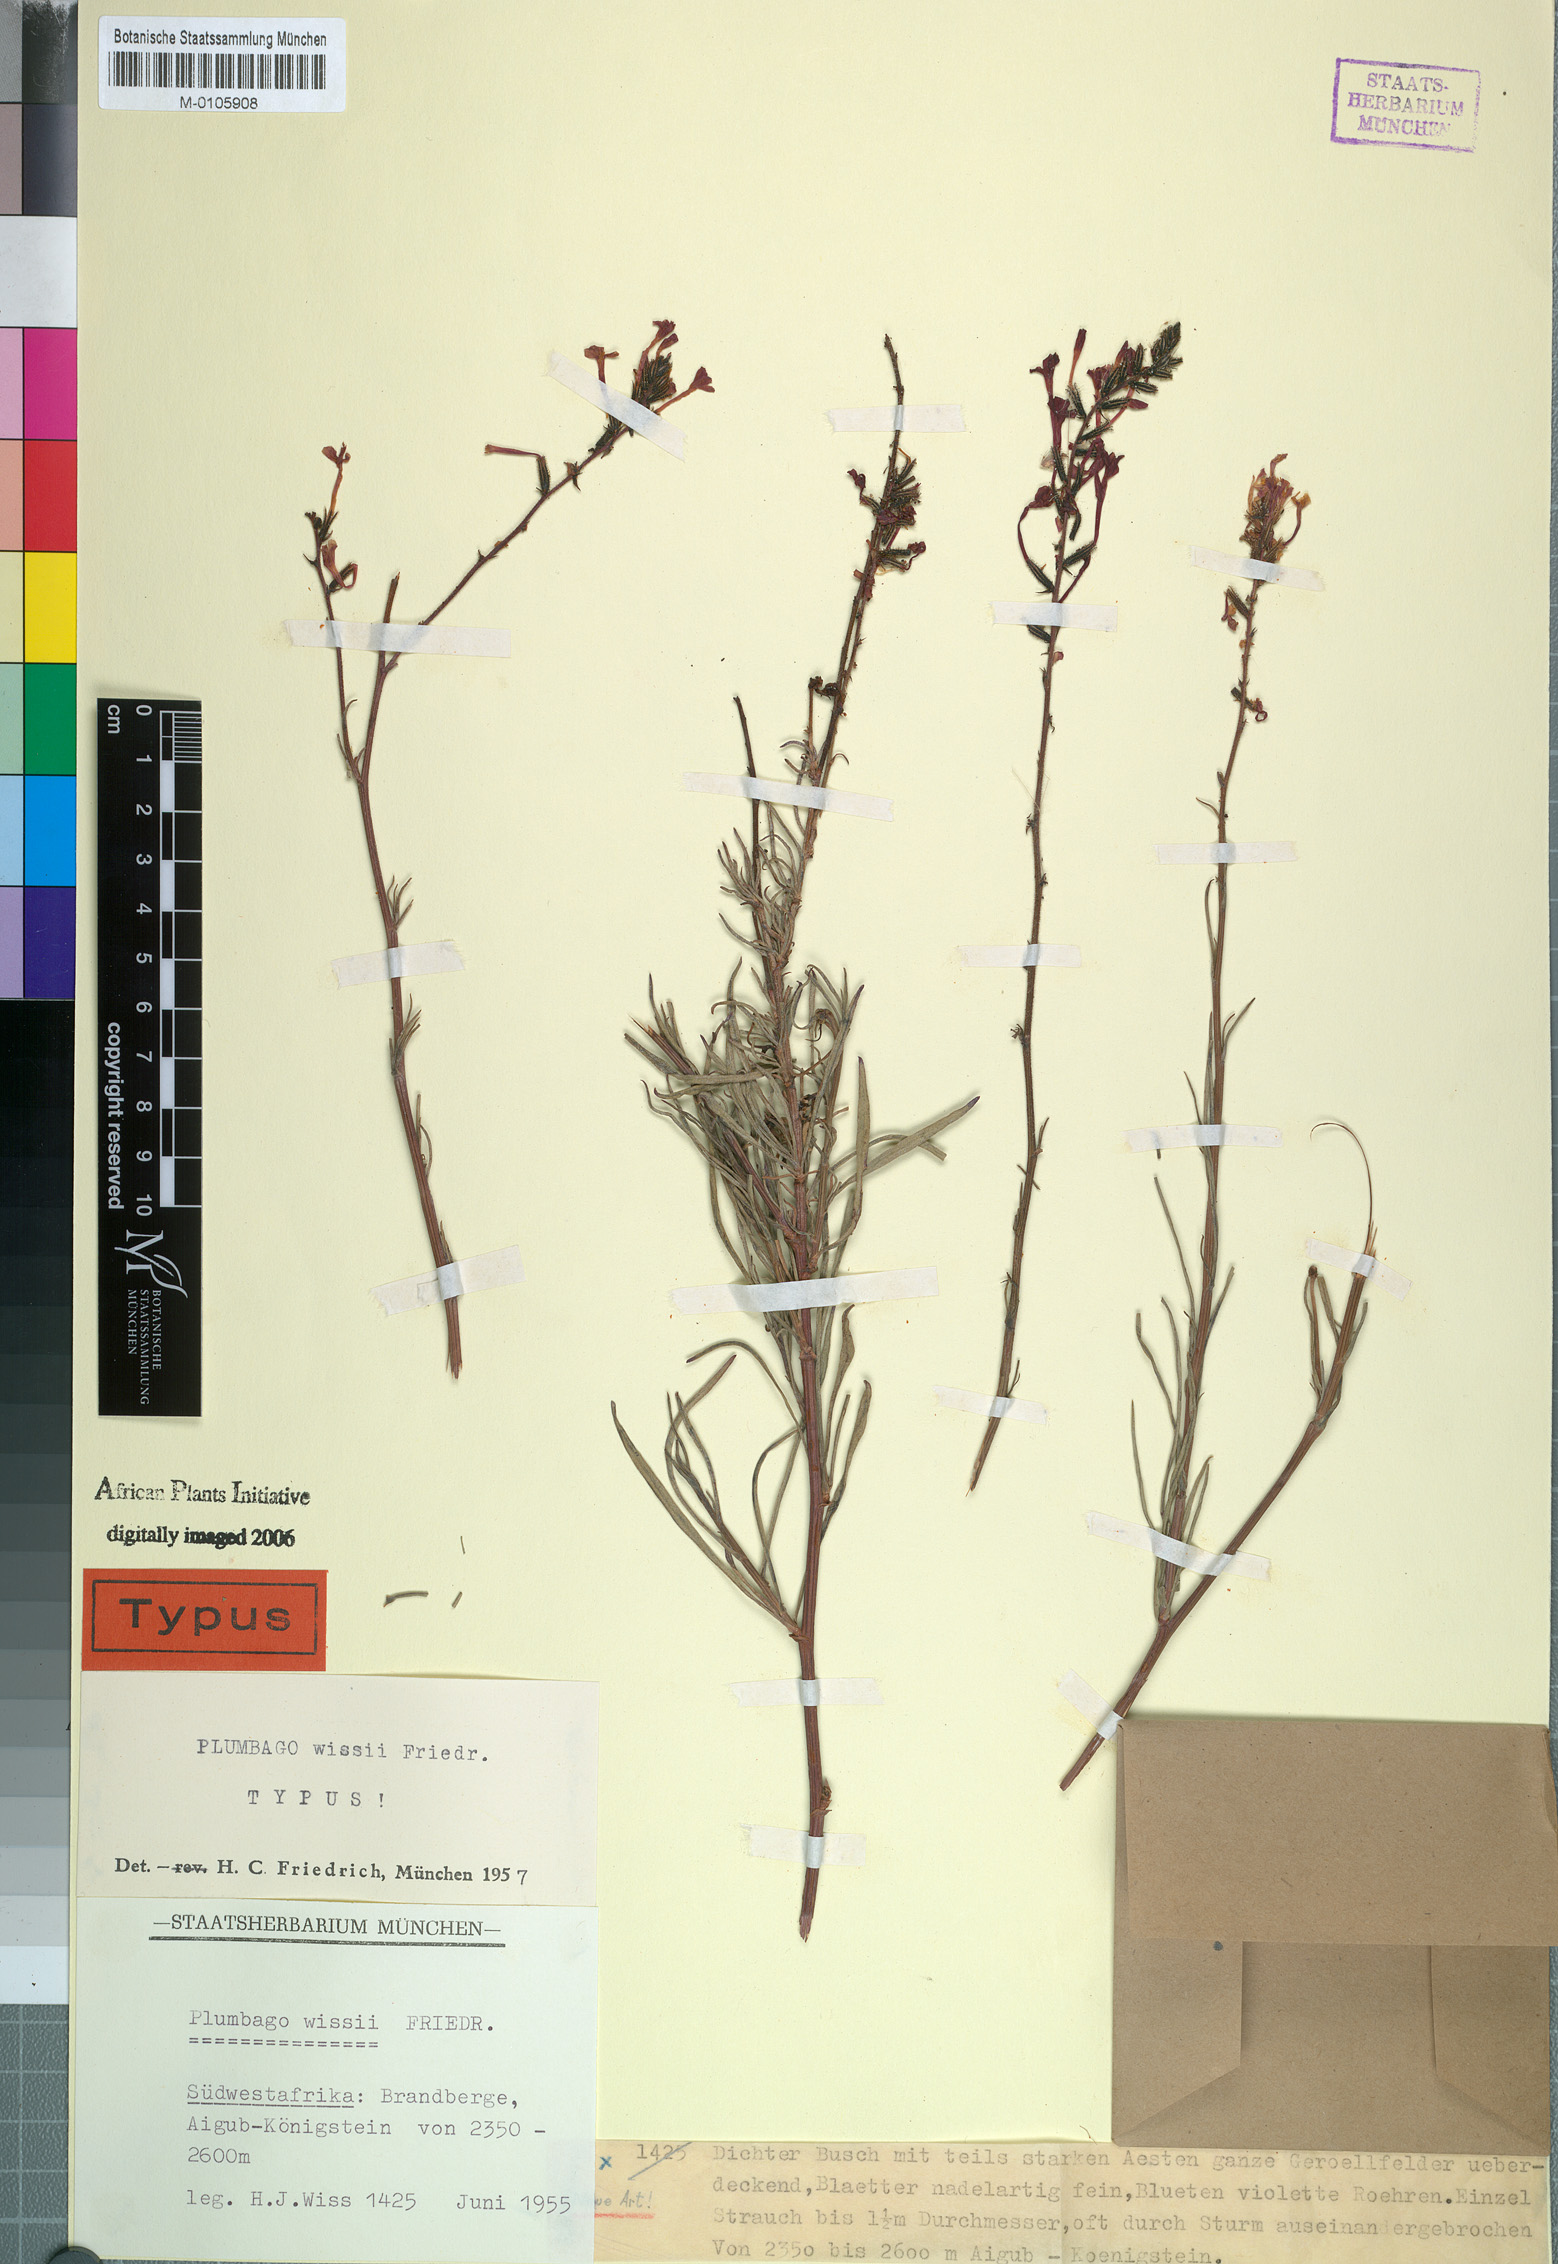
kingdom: Plantae
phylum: Tracheophyta
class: Magnoliopsida
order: Caryophyllales
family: Plumbaginaceae
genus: Plumbago
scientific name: Plumbago wissii
